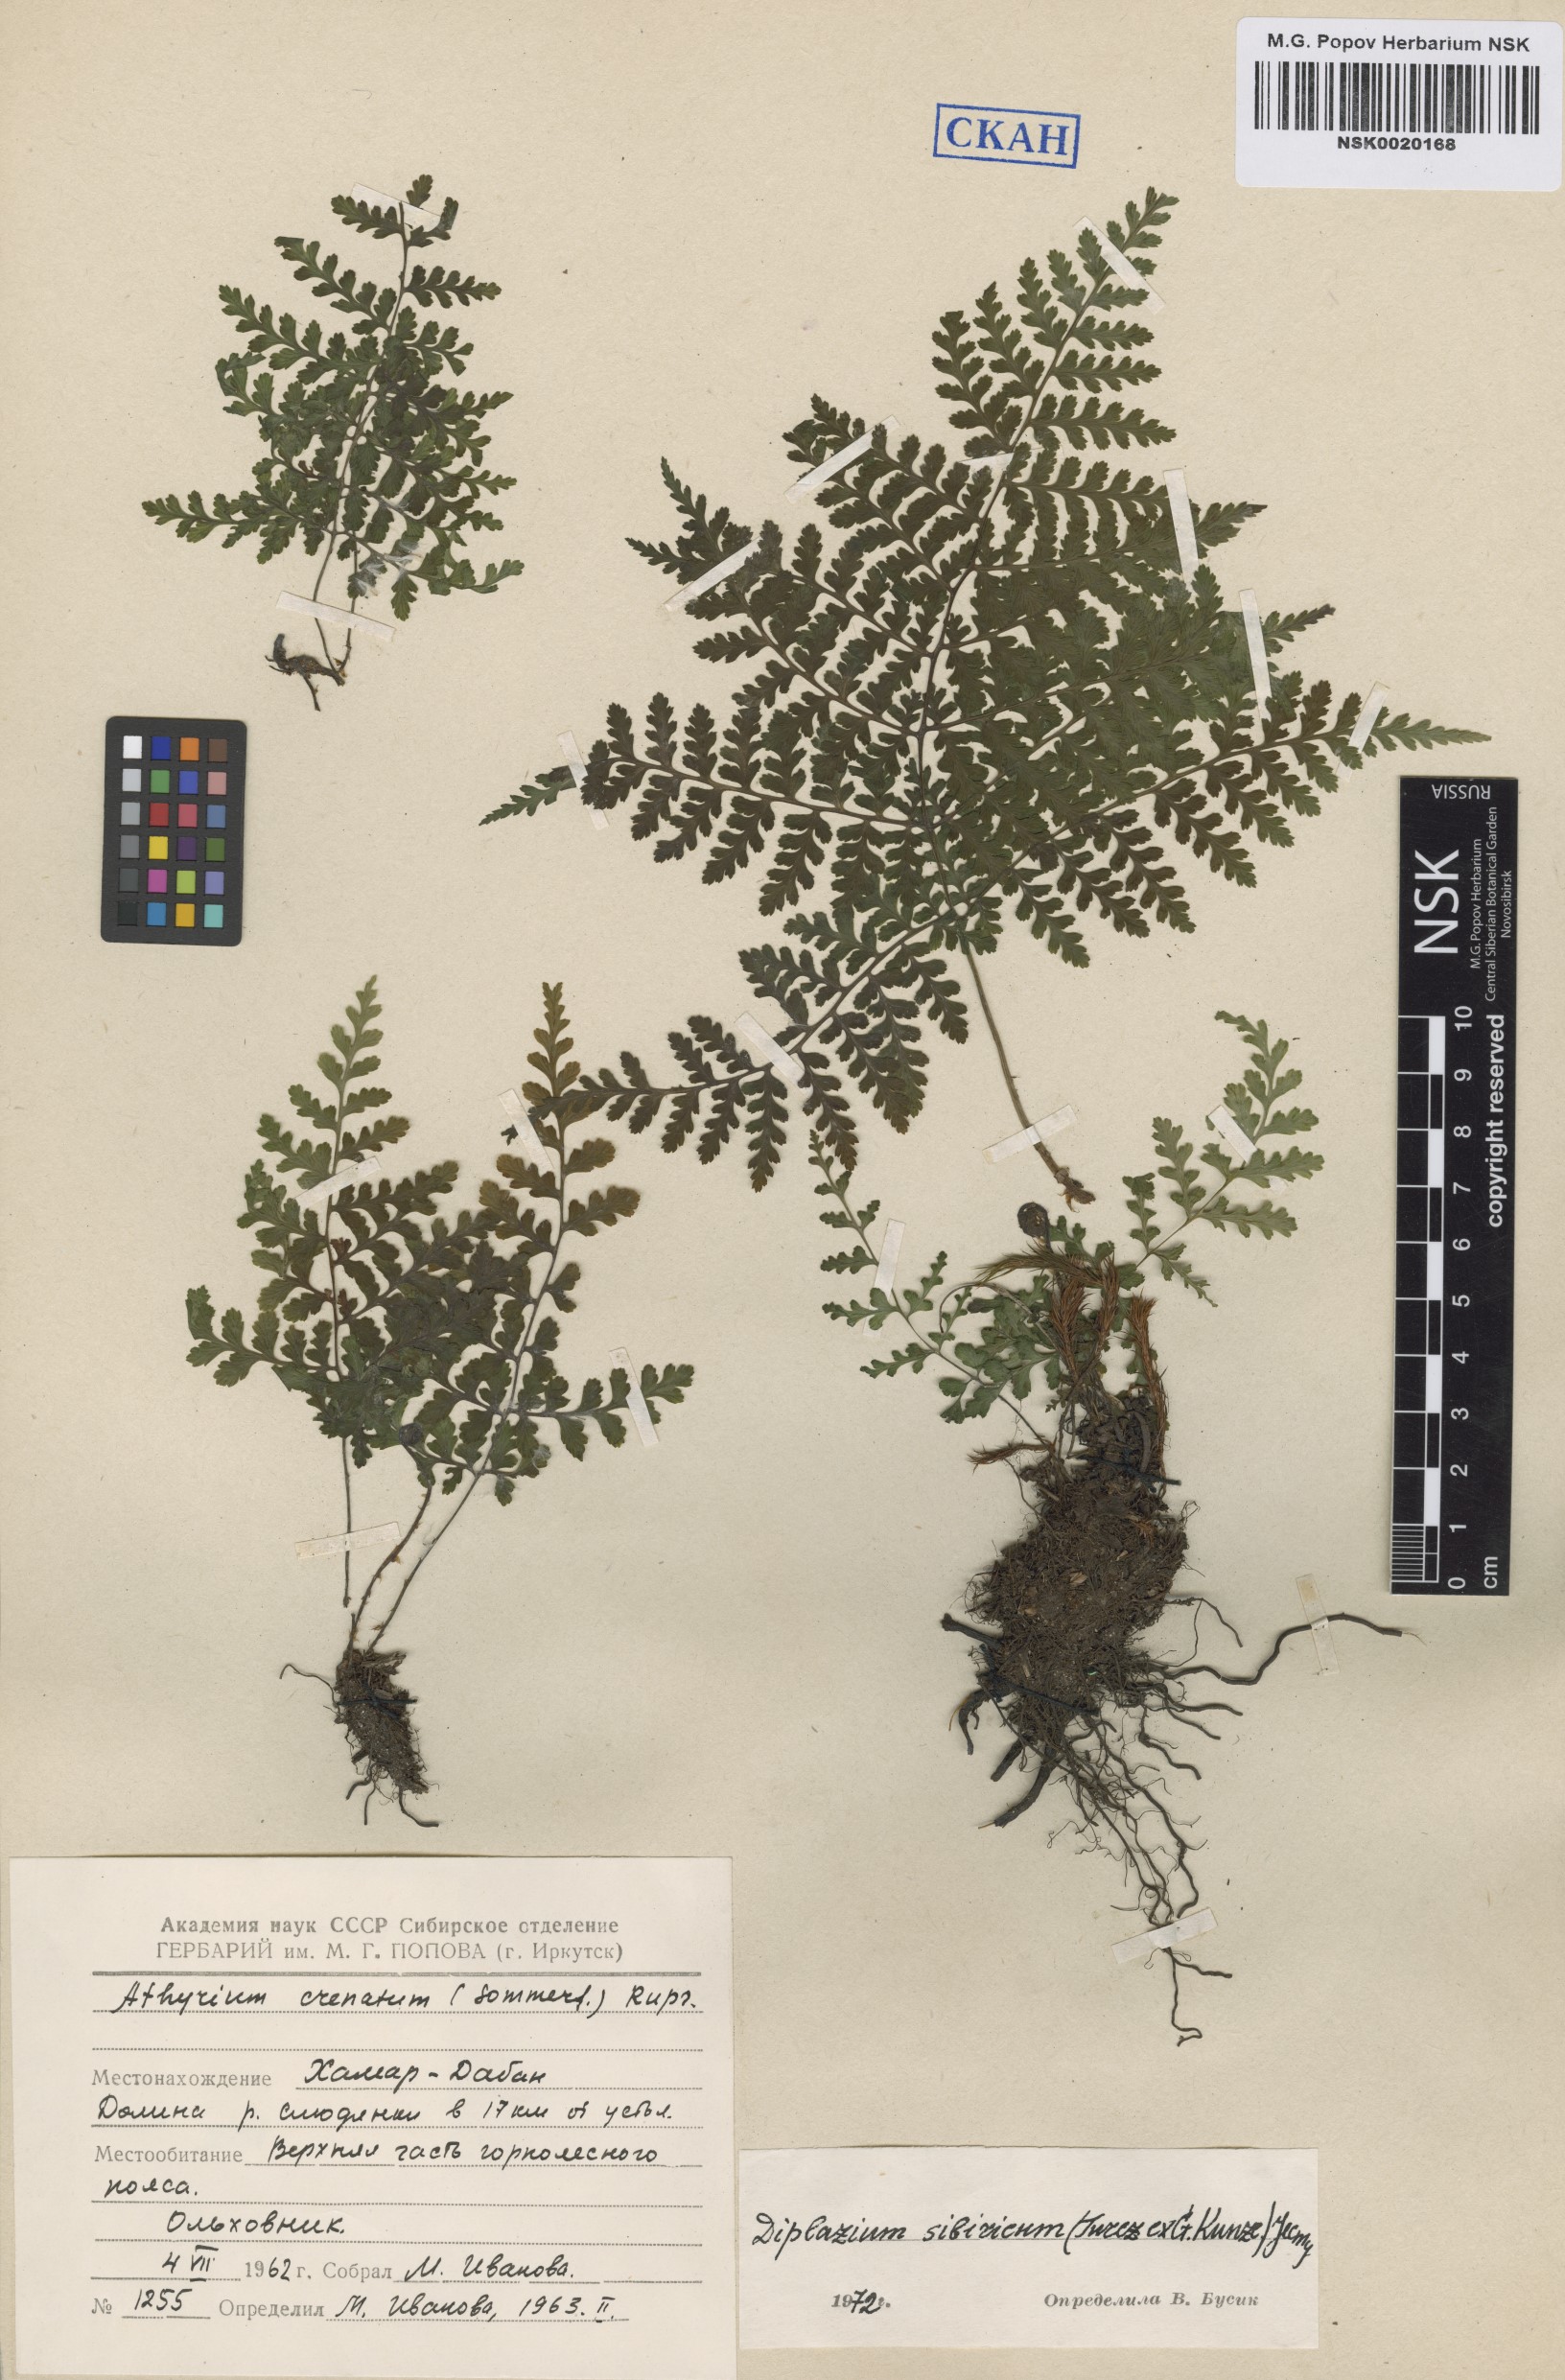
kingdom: Plantae
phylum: Tracheophyta
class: Polypodiopsida
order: Polypodiales
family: Athyriaceae
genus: Diplazium
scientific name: Diplazium sibiricum
